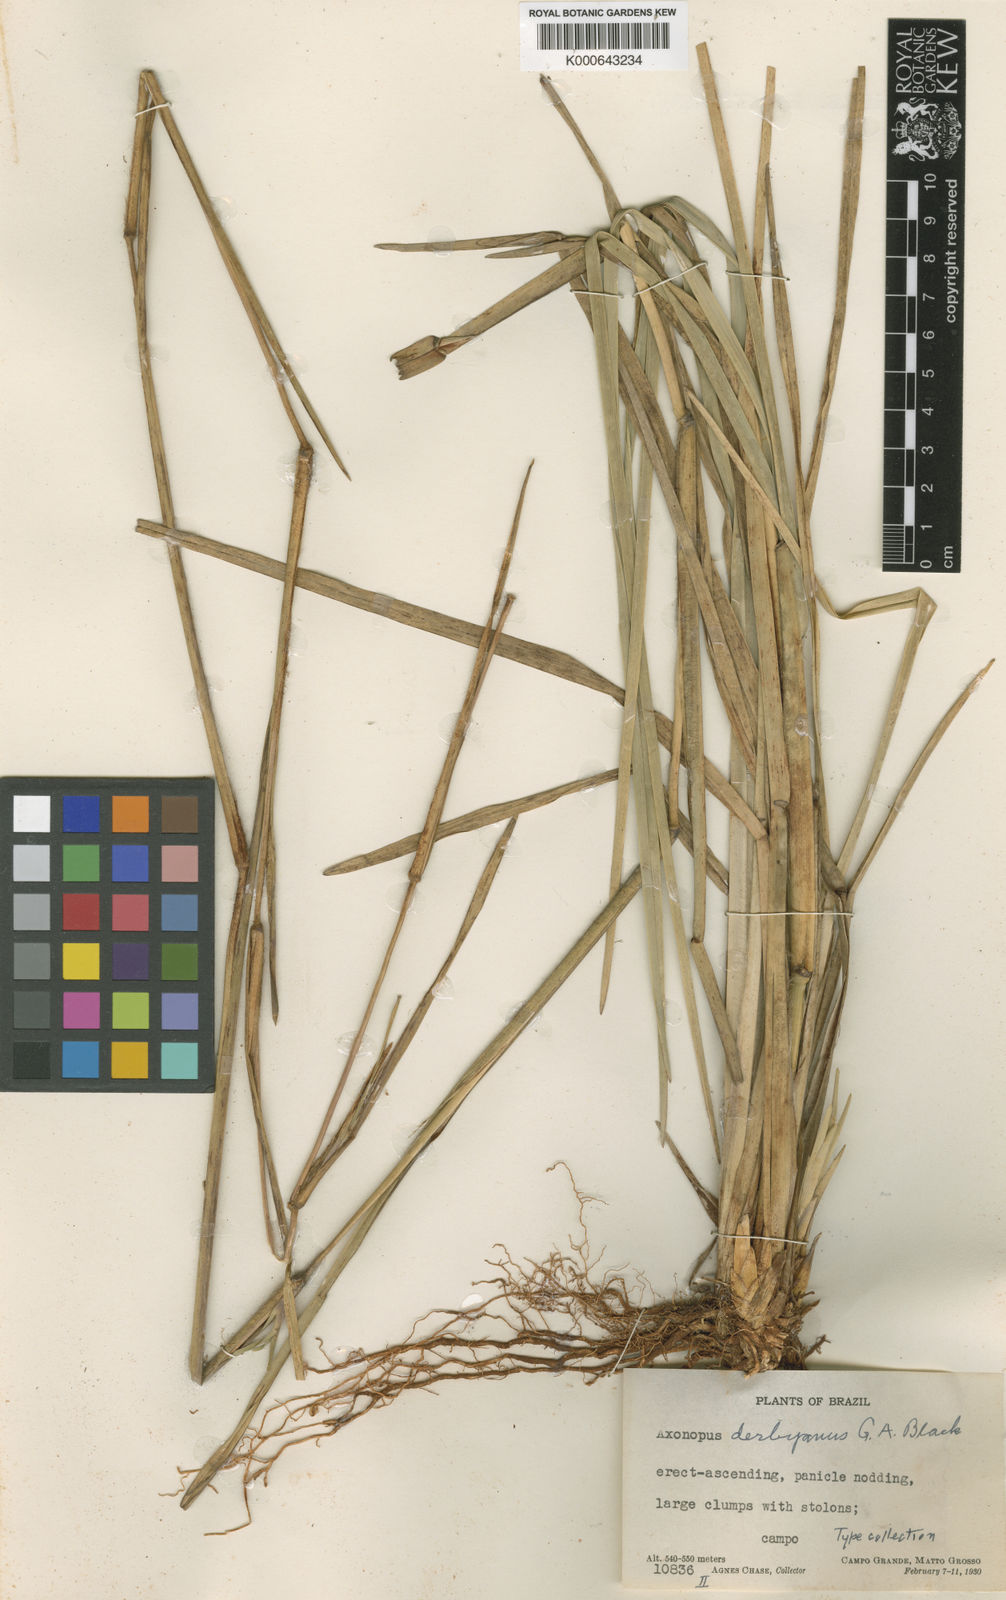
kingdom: Plantae
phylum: Tracheophyta
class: Liliopsida
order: Poales
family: Poaceae
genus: Axonopus
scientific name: Axonopus pressus
